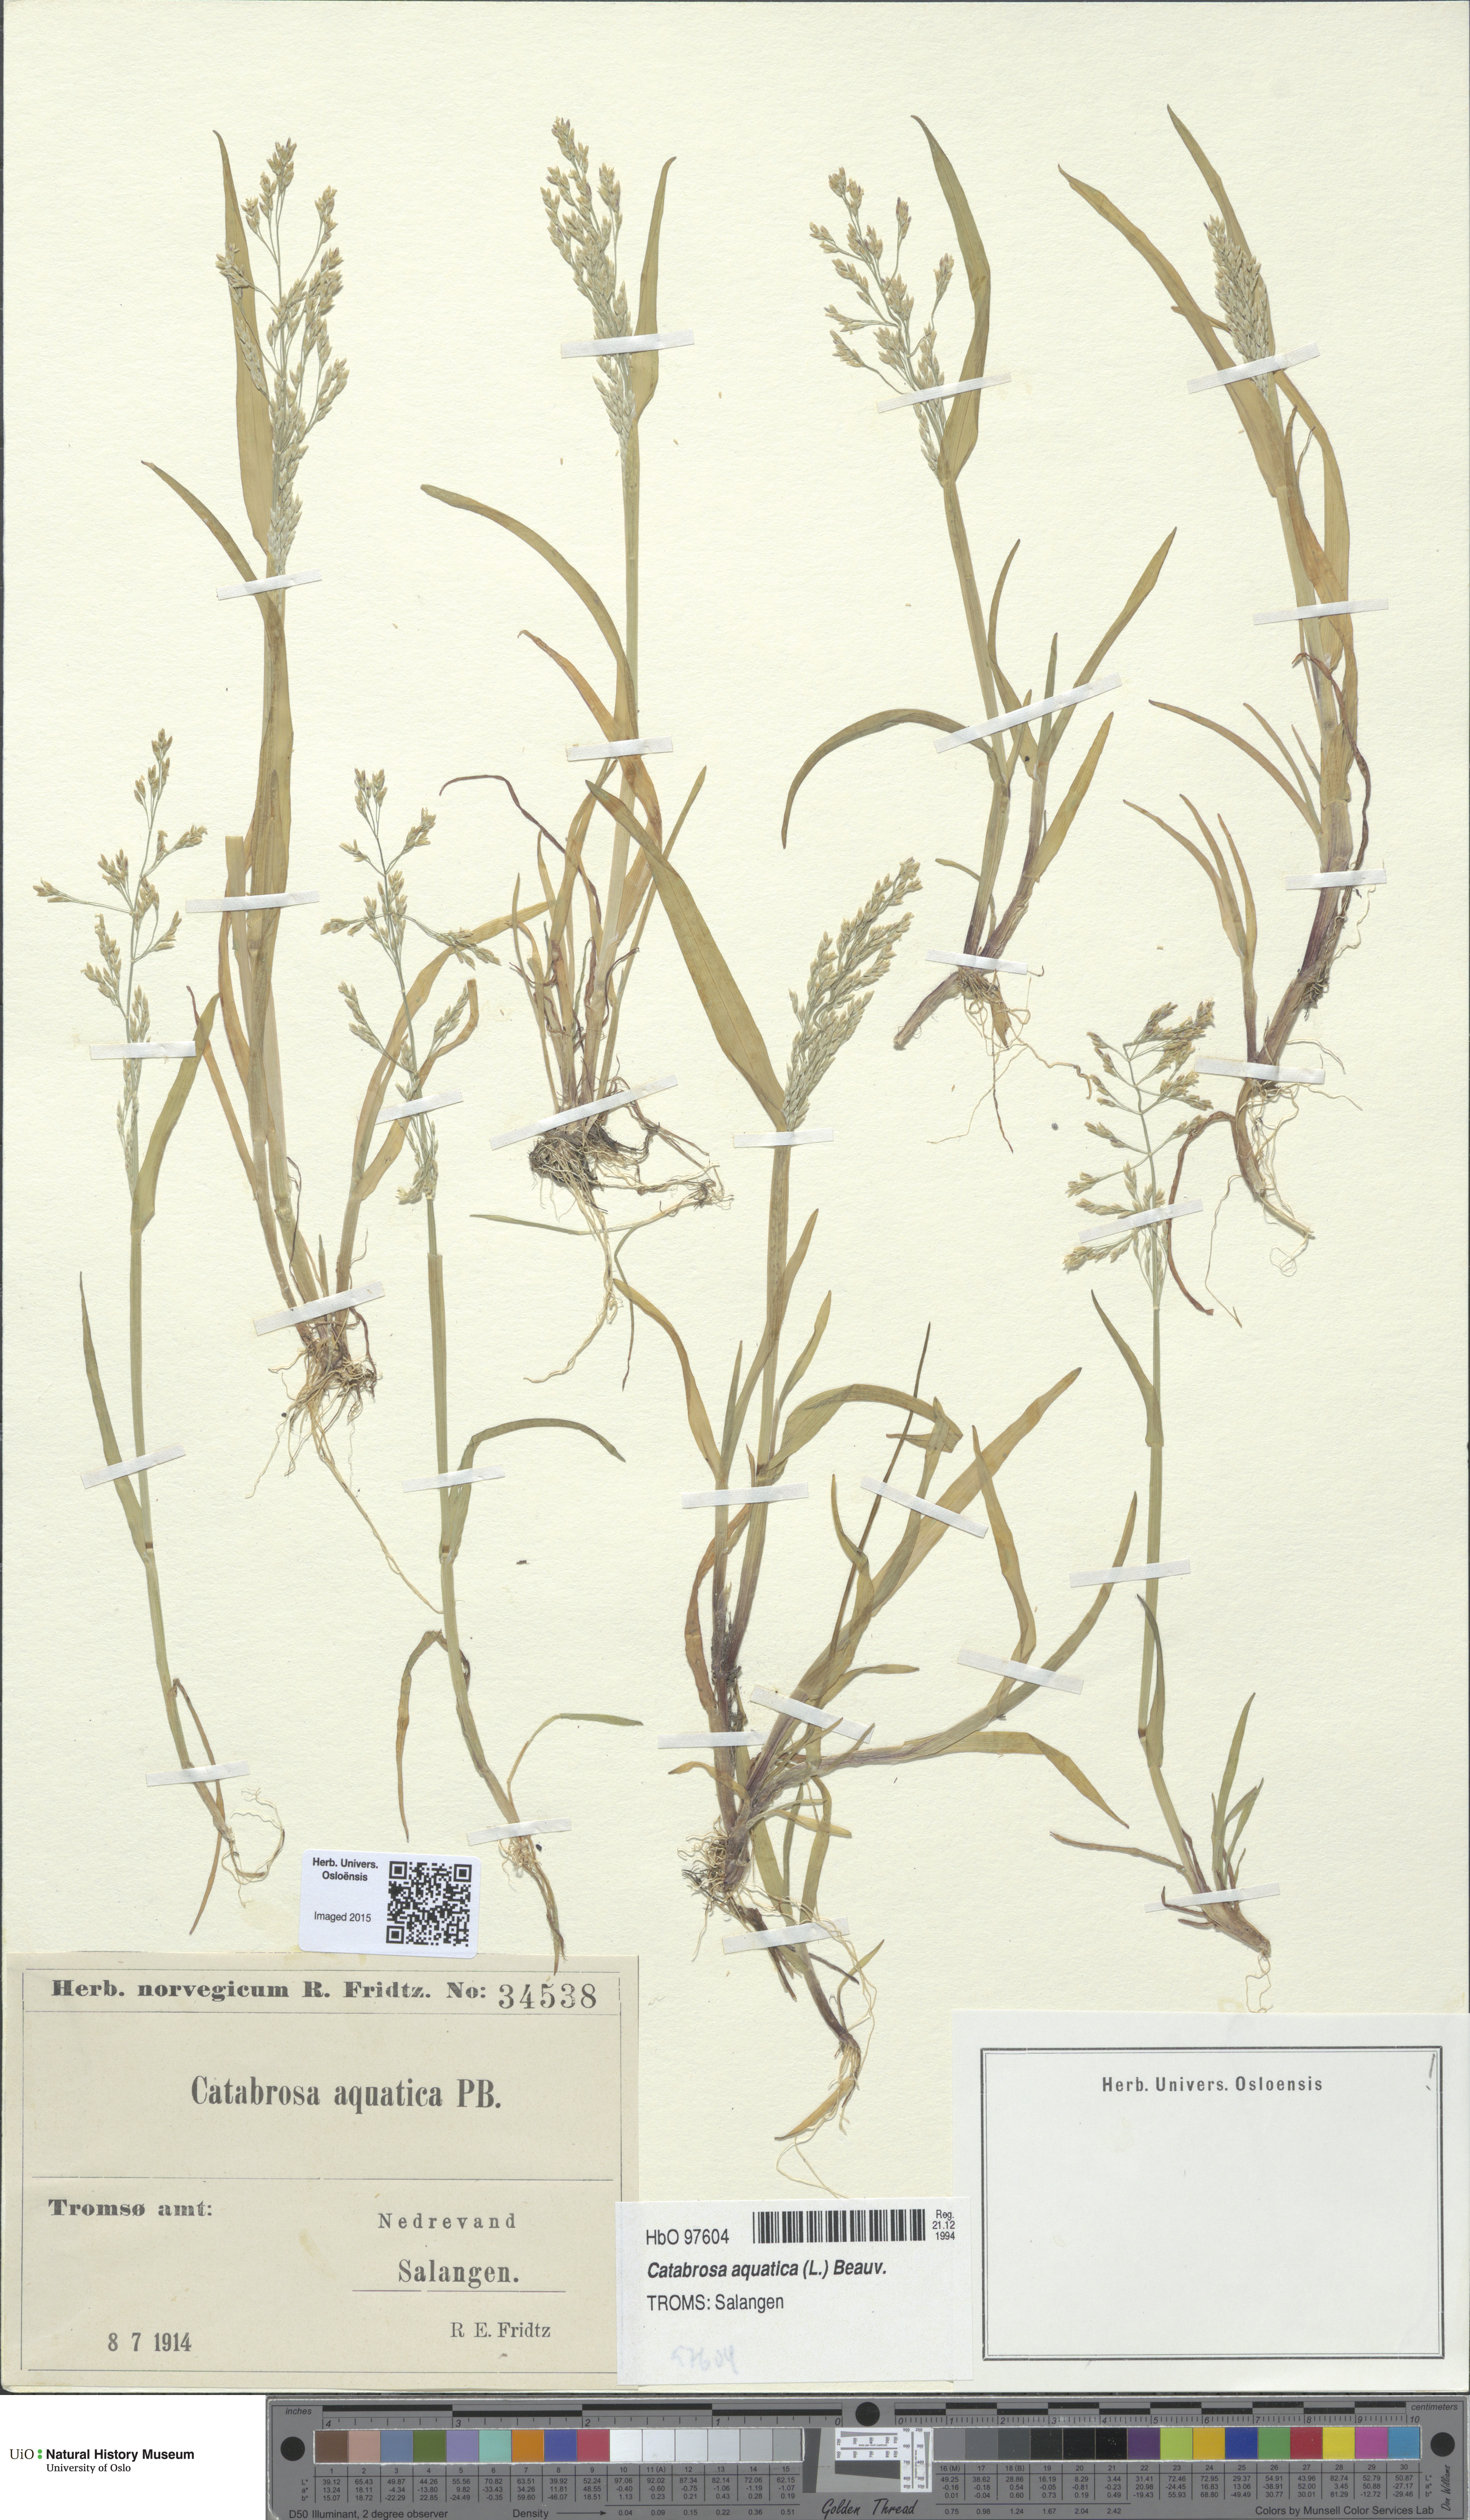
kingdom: Plantae
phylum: Tracheophyta
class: Liliopsida
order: Poales
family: Poaceae
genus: Catabrosa
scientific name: Catabrosa aquatica
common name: Whorl-grass
